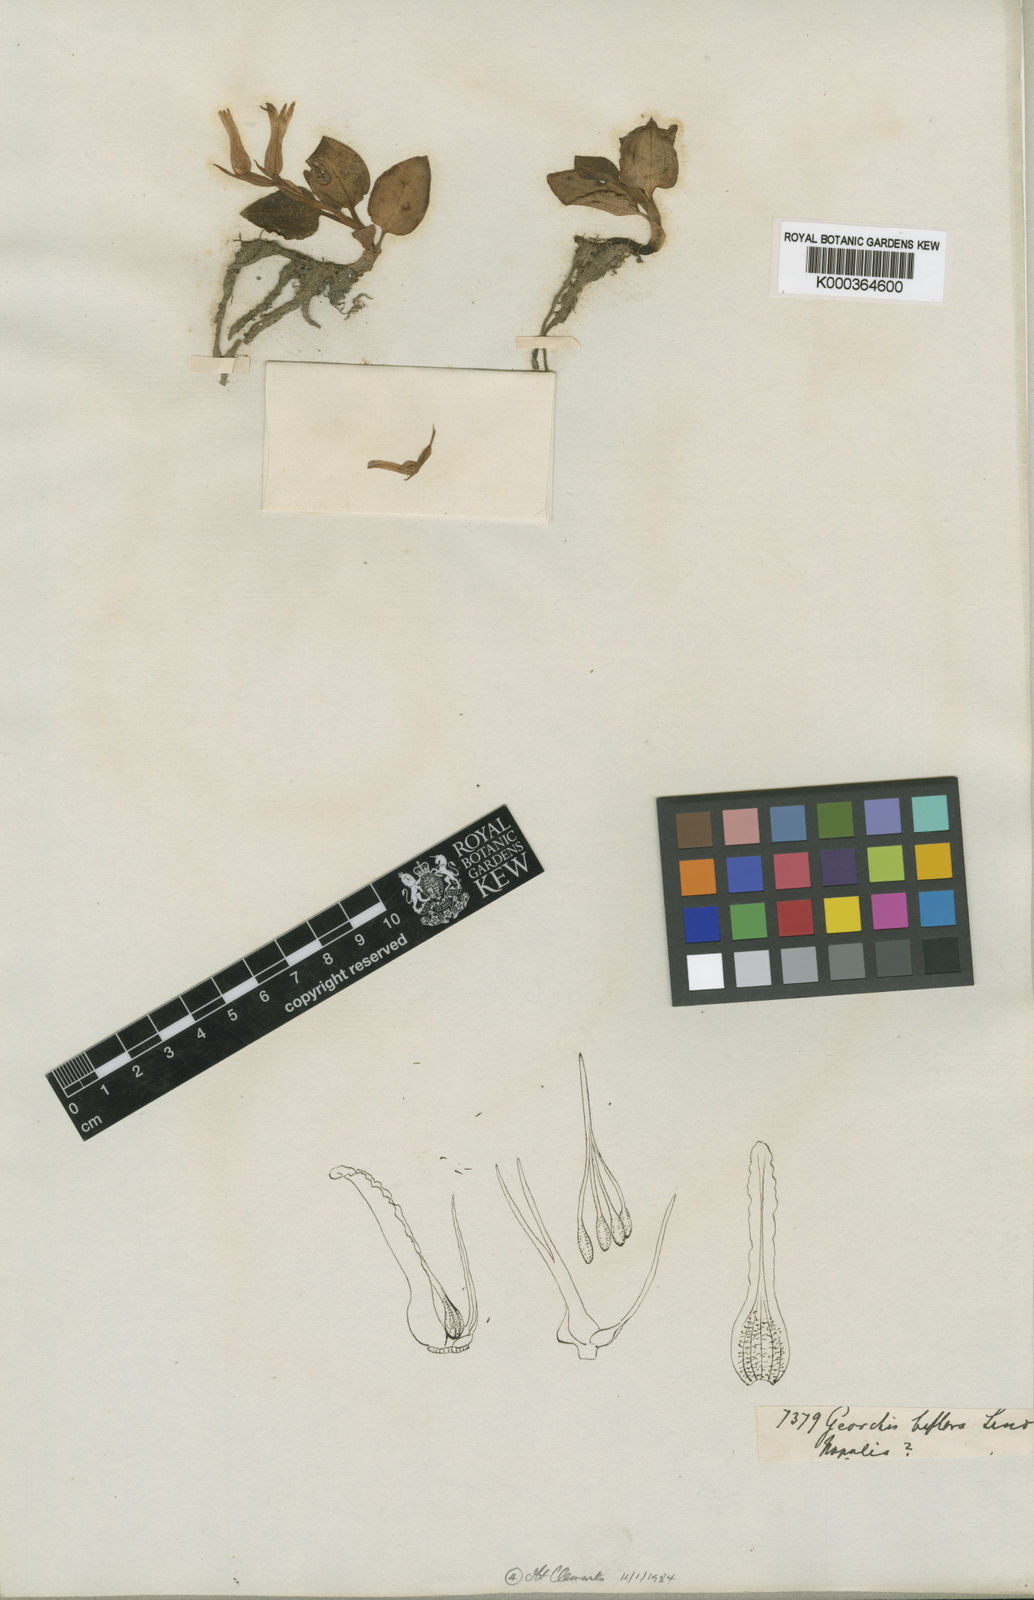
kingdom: Plantae
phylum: Tracheophyta
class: Liliopsida
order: Asparagales
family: Orchidaceae
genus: Goodyera
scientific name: Goodyera biflora
